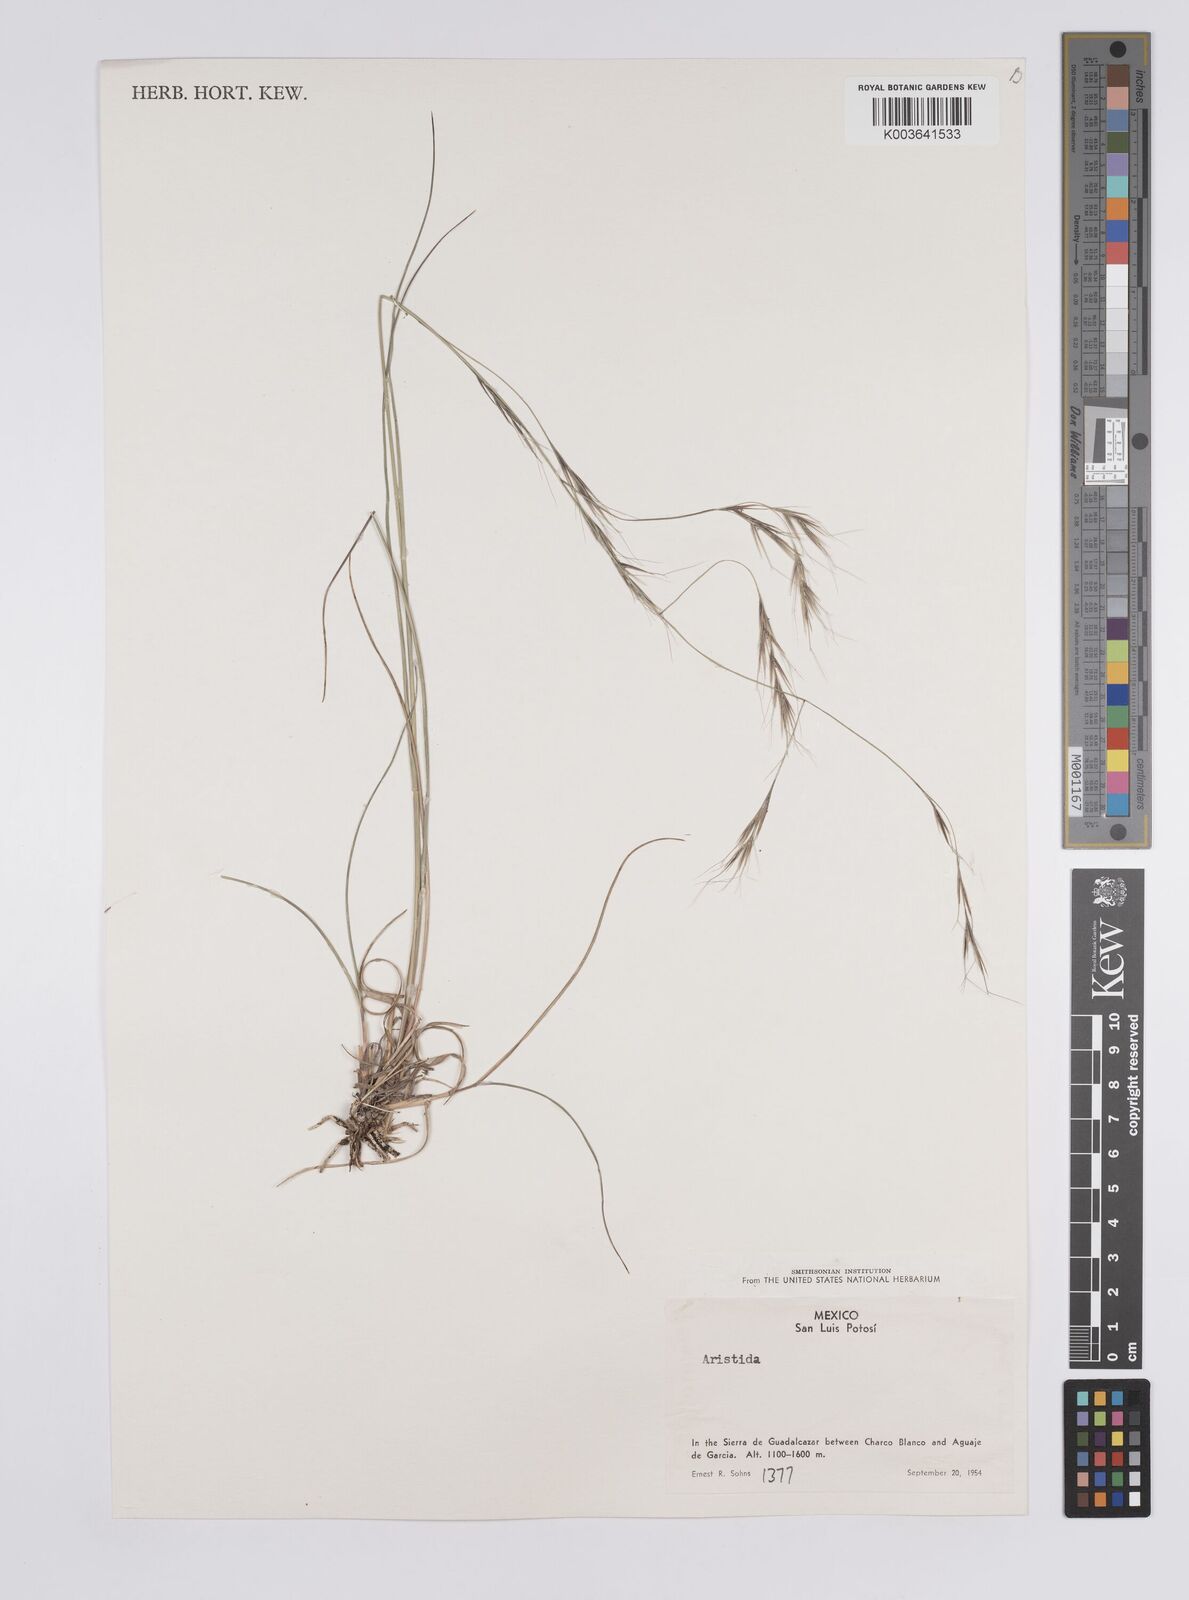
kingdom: Plantae
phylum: Tracheophyta
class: Liliopsida
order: Poales
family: Poaceae
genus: Aristida
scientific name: Aristida
